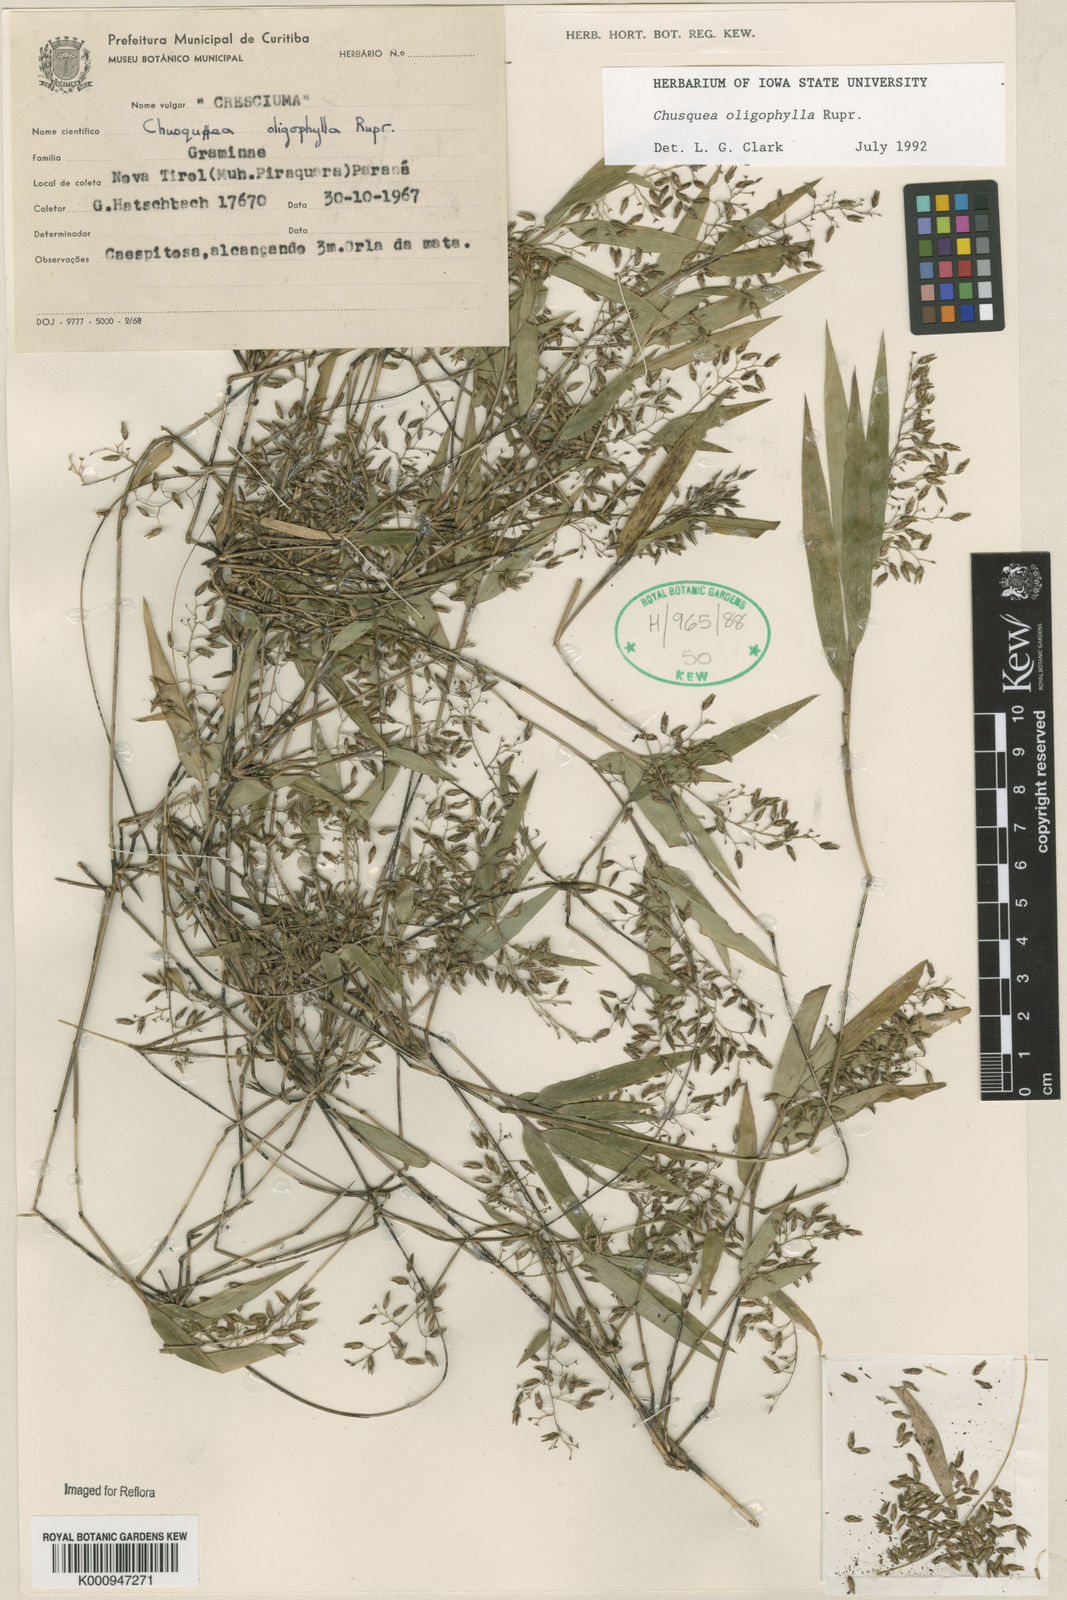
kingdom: Plantae
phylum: Tracheophyta
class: Liliopsida
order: Poales
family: Poaceae
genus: Chusquea
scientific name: Chusquea oligophylla
